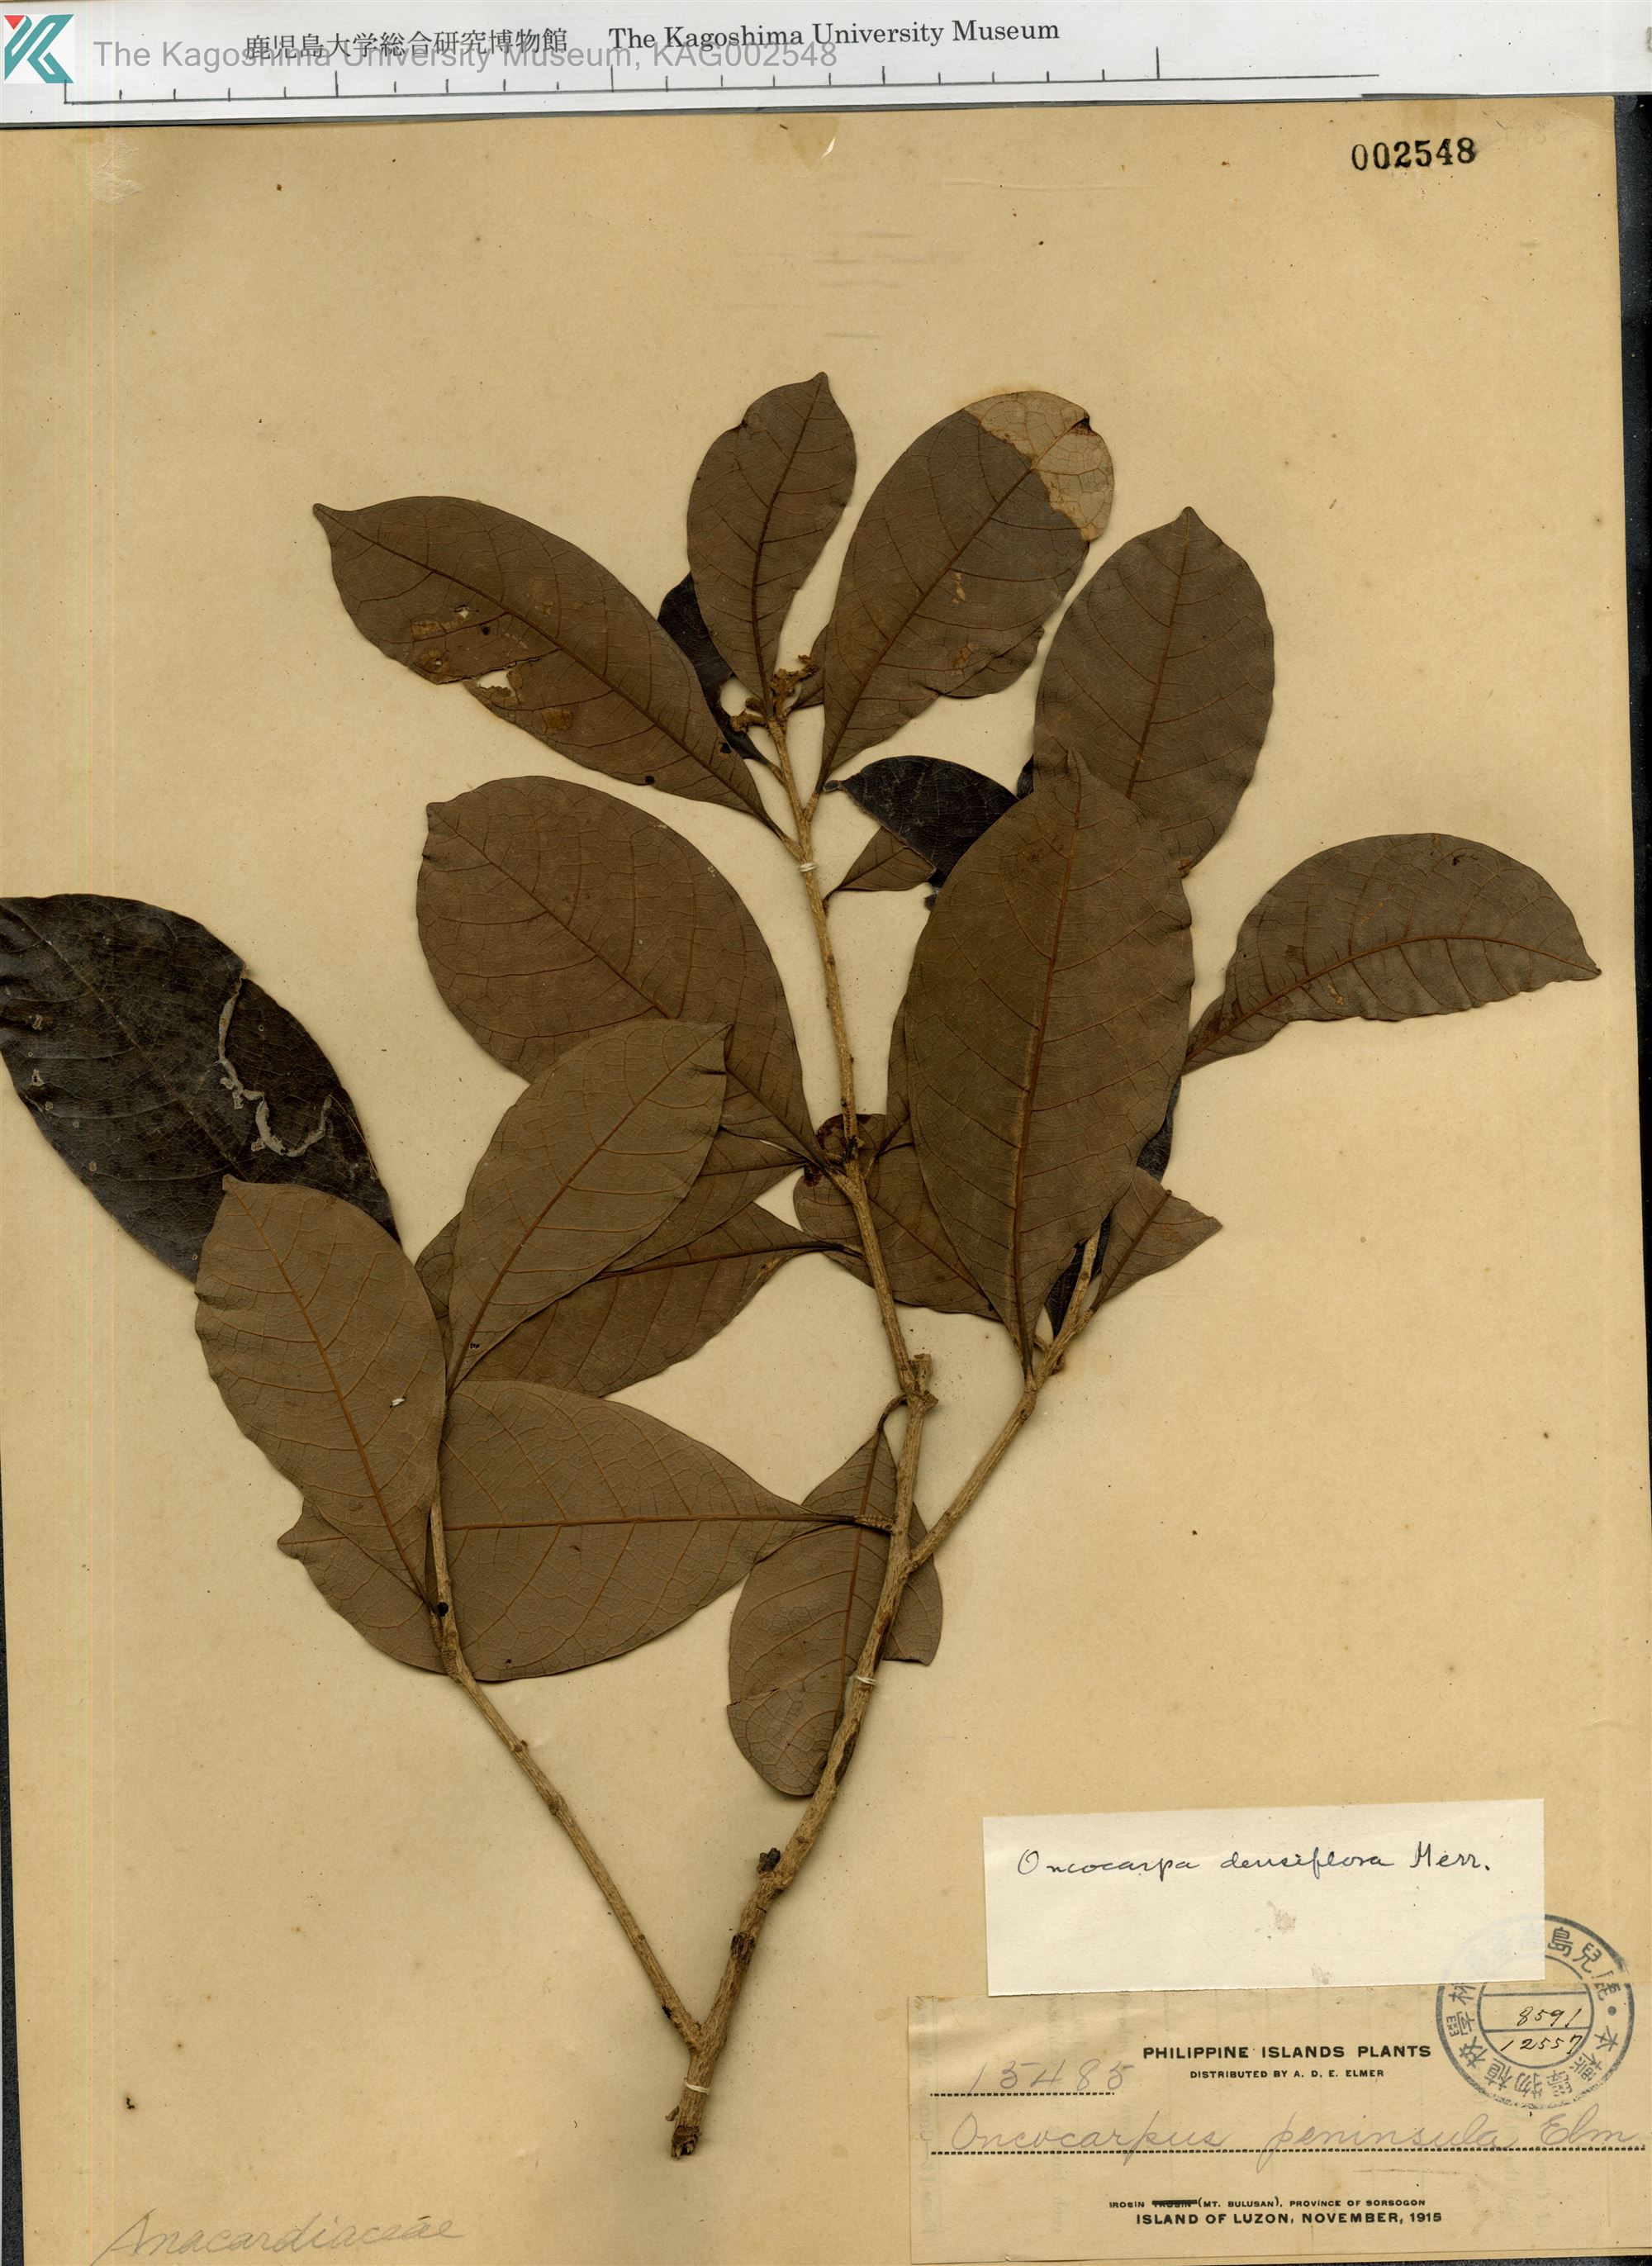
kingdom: Plantae
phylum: Tracheophyta
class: Magnoliopsida
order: Sapindales
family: Anacardiaceae
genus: Semecarpus
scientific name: Semecarpus densiflorus
